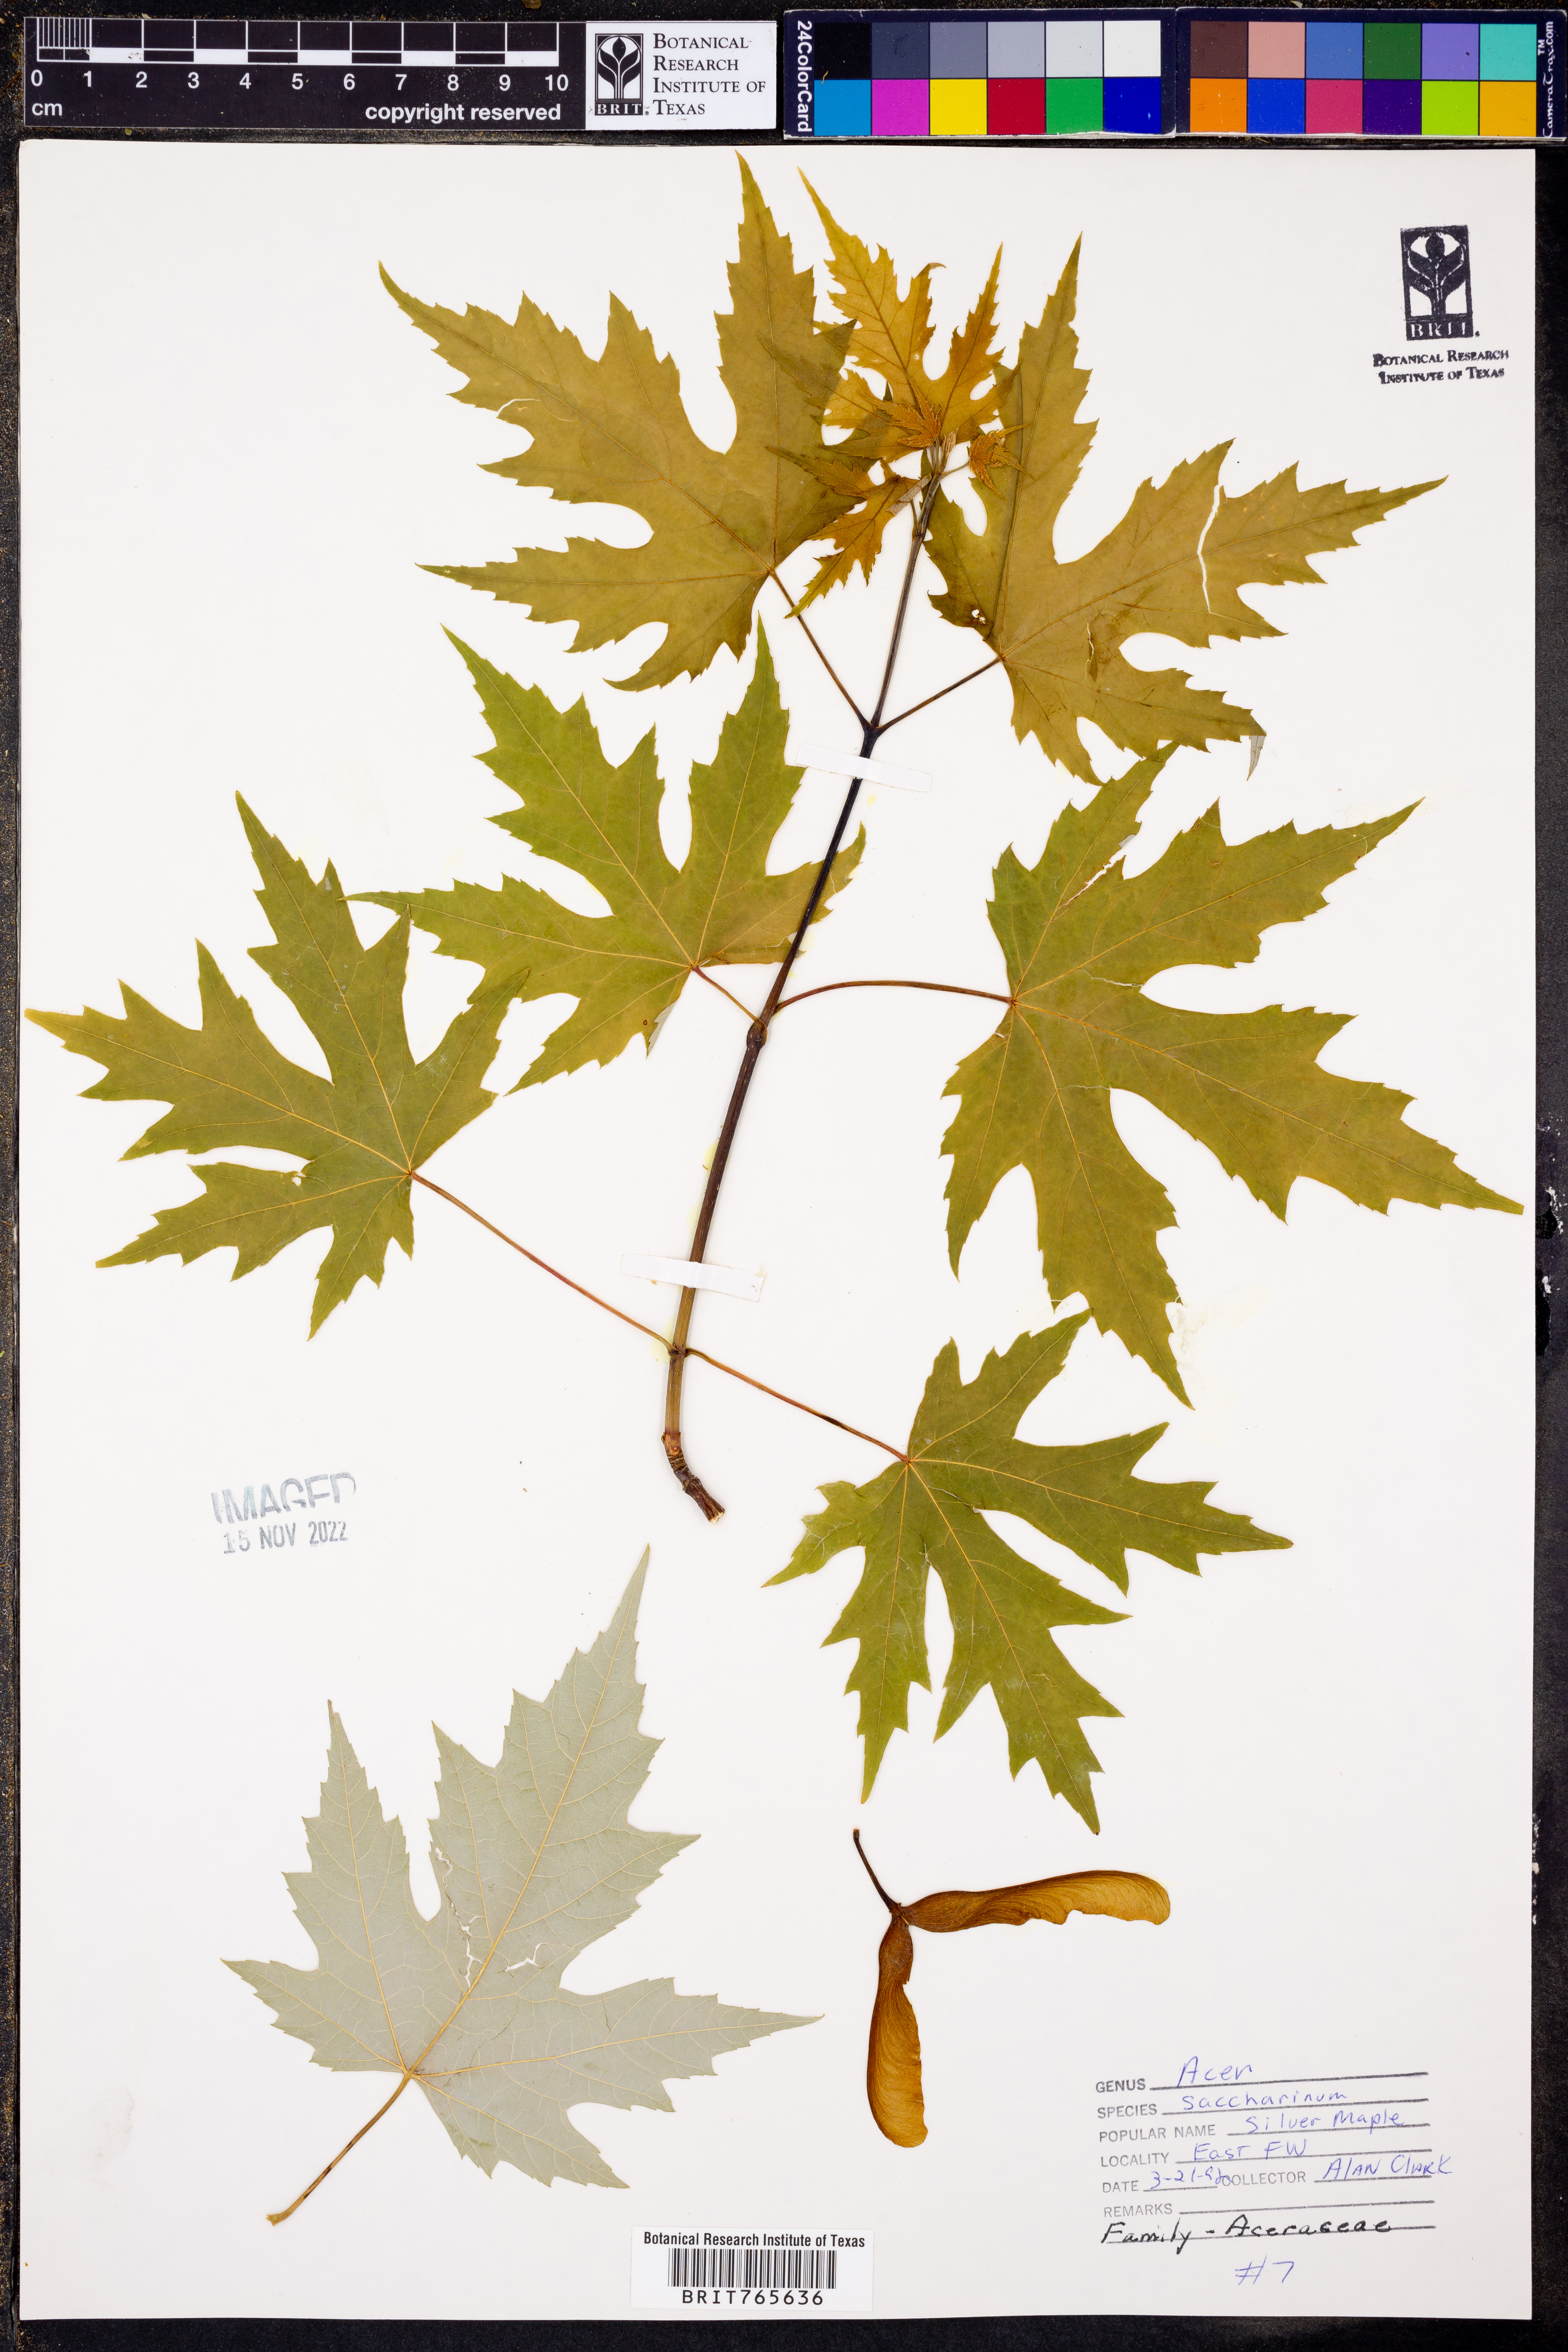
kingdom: Plantae
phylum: Tracheophyta
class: Magnoliopsida
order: Sapindales
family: Sapindaceae
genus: Acer
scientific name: Acer saccharinum
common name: Silver maple
